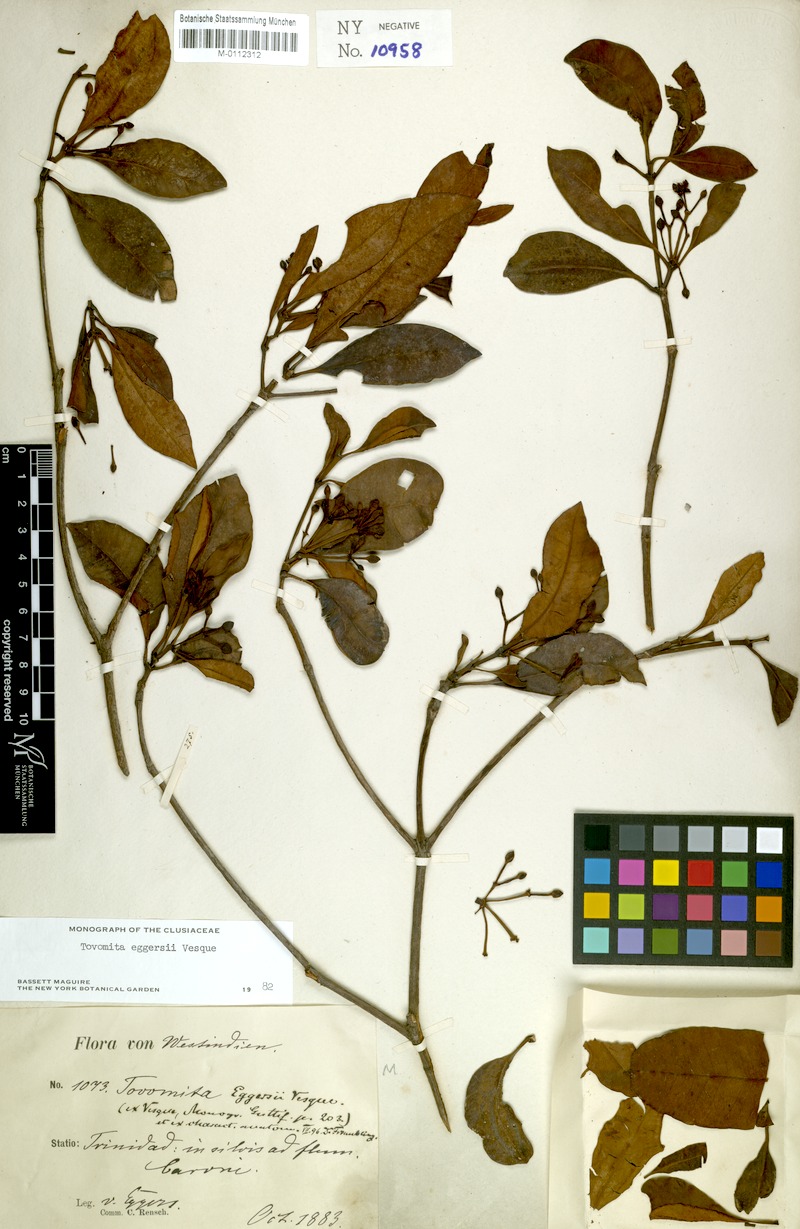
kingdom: Plantae
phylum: Tracheophyta
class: Magnoliopsida
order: Malpighiales
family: Clusiaceae
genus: Tovomita
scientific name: Tovomita eggersii
